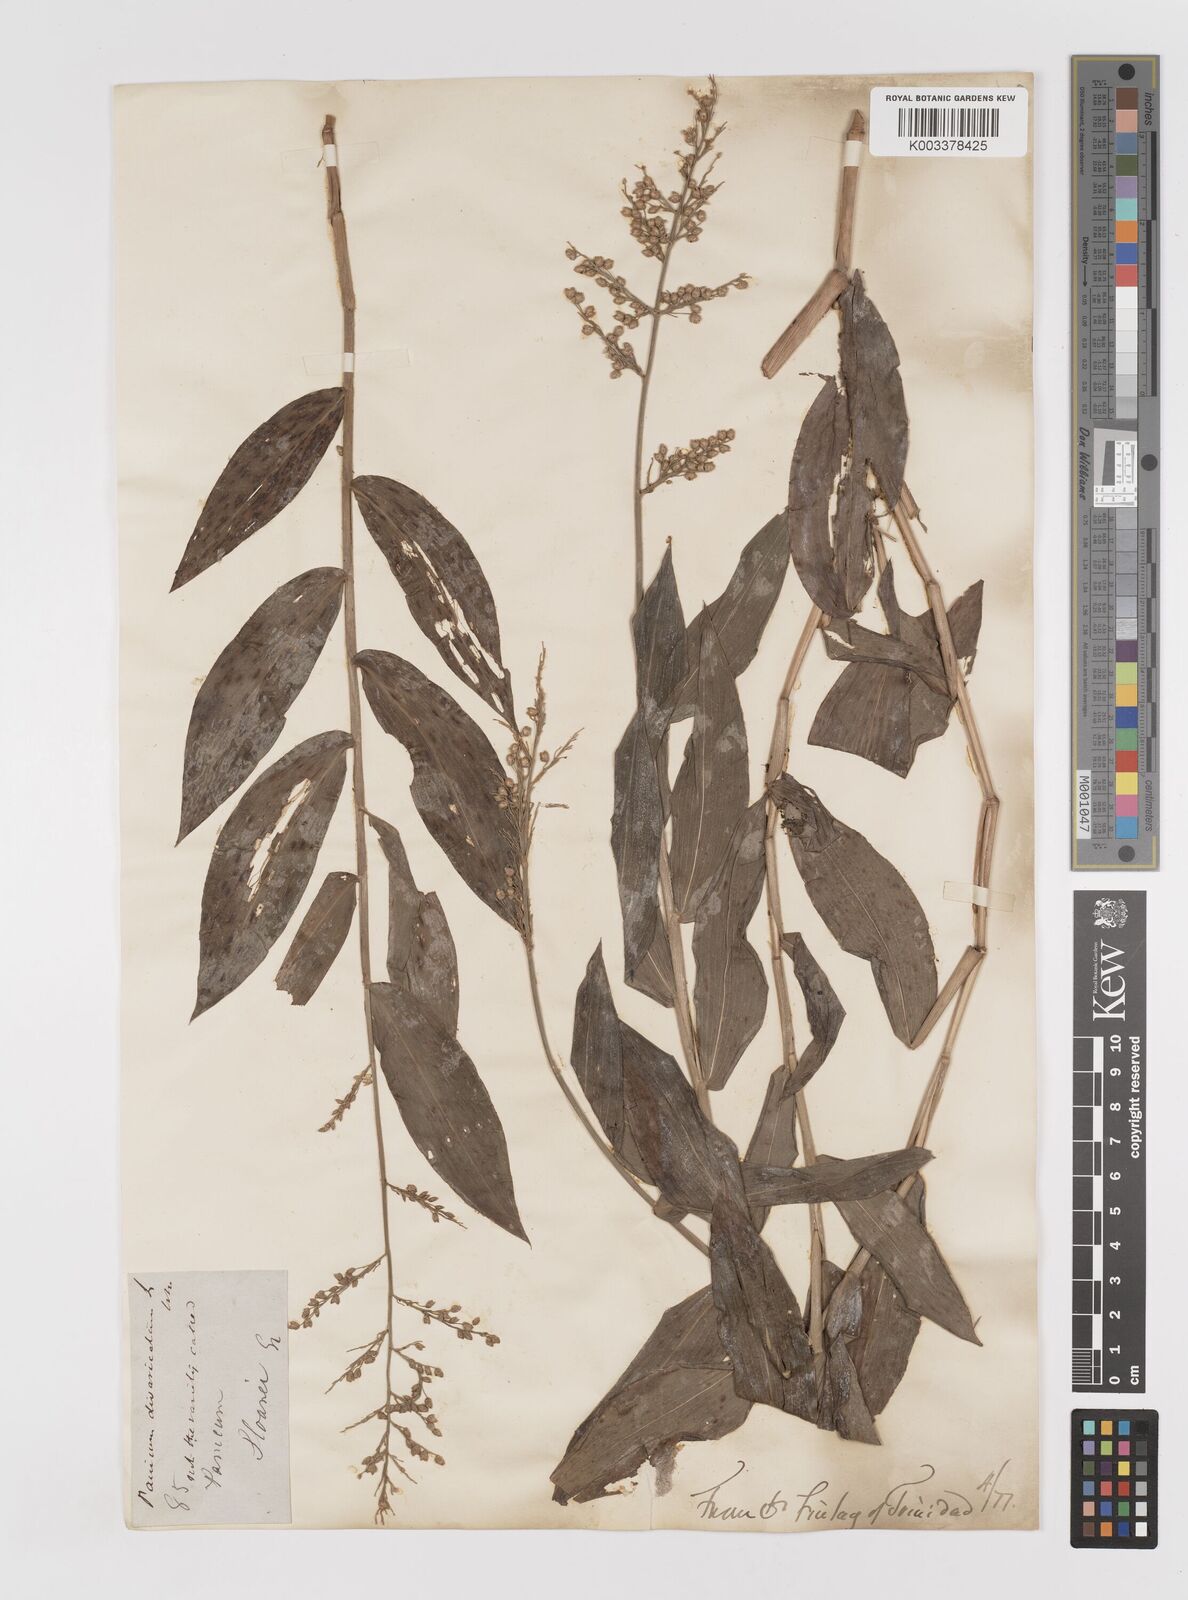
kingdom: Plantae
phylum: Tracheophyta
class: Liliopsida
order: Poales
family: Poaceae
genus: Lasiacis
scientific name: Lasiacis anomala
